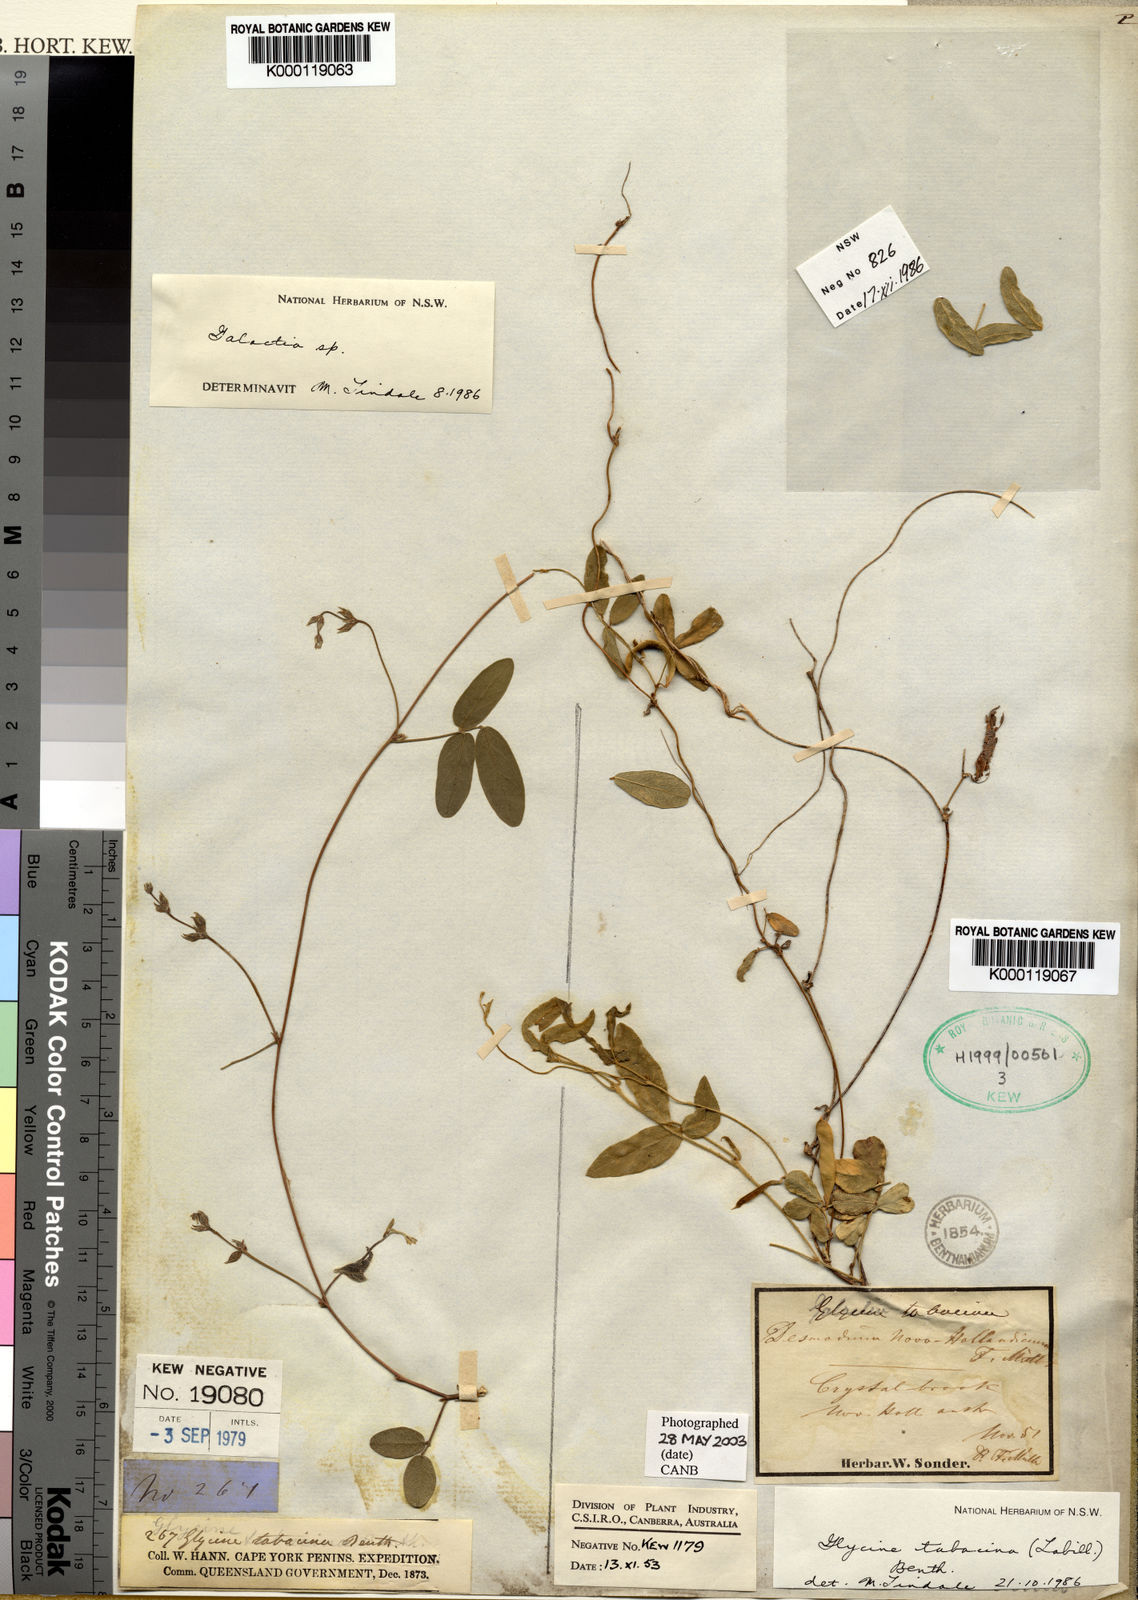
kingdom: Plantae
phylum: Tracheophyta
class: Magnoliopsida
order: Fabales
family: Fabaceae
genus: Glycine
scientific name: Glycine tabacina
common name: Pea glycine
